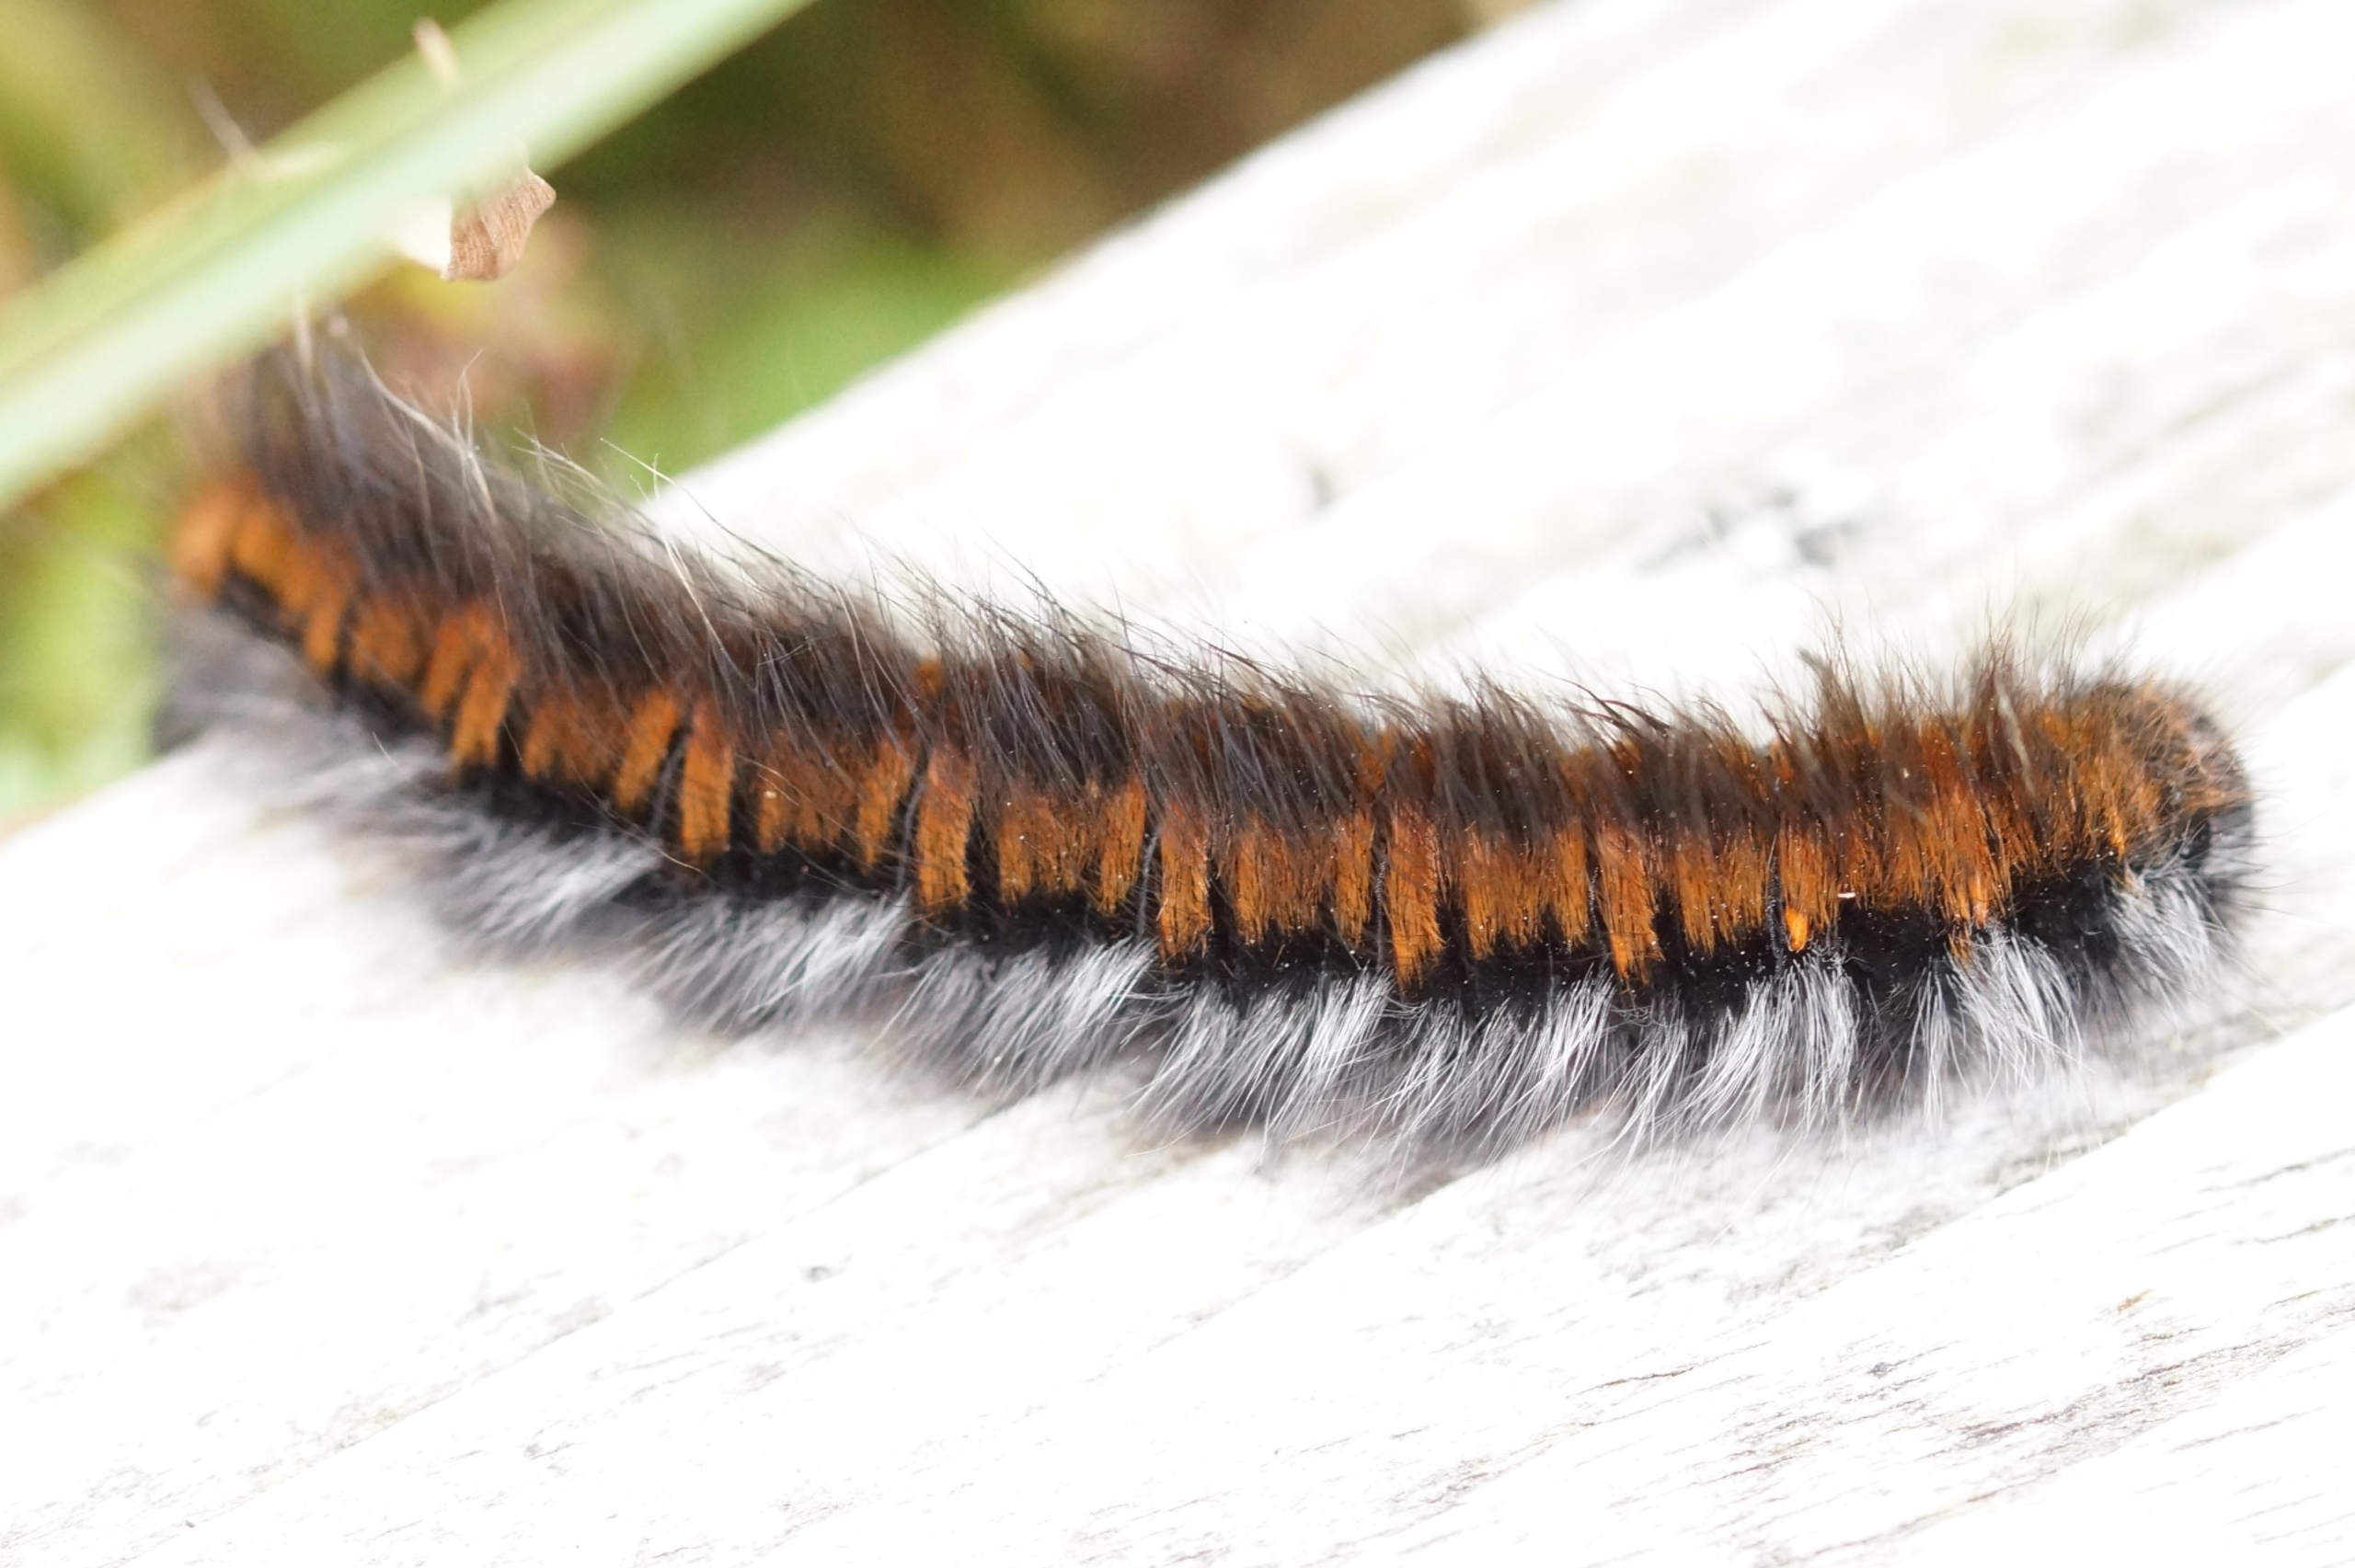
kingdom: Animalia
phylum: Arthropoda
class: Insecta
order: Lepidoptera
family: Lasiocampidae
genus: Macrothylacia
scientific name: Macrothylacia rubi
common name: Brombærspinder
